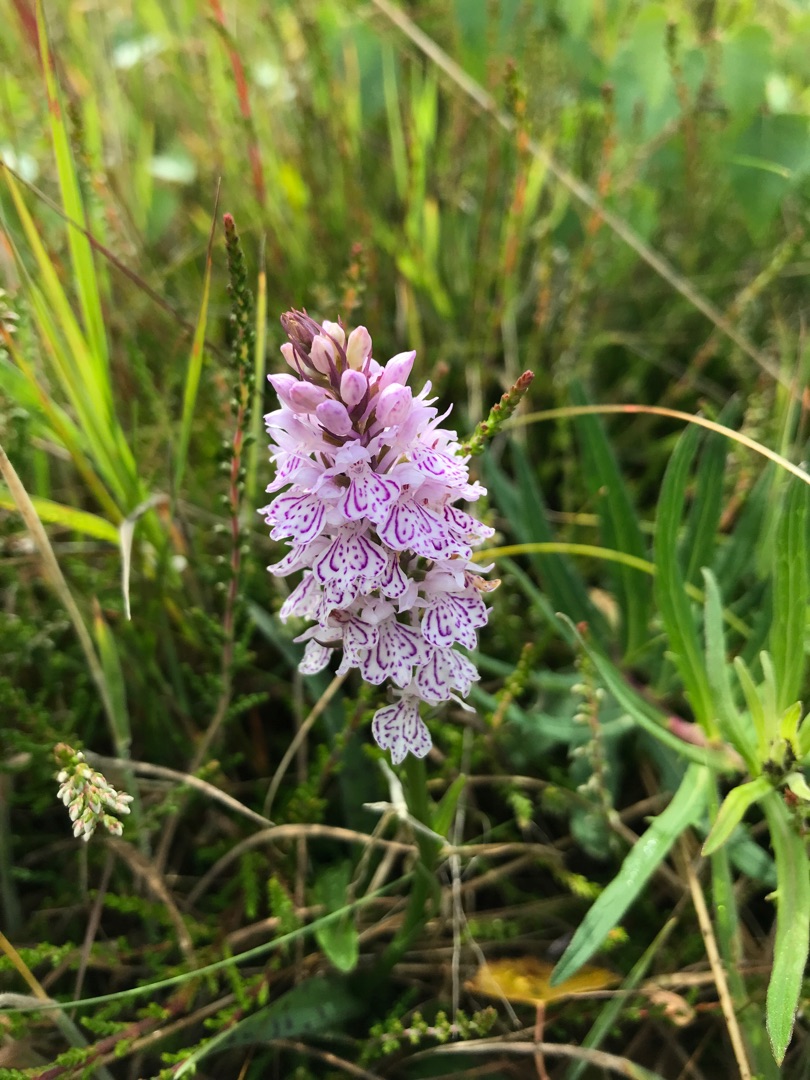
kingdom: Plantae
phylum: Tracheophyta
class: Liliopsida
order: Asparagales
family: Orchidaceae
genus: Dactylorhiza
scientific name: Dactylorhiza maculata
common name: Plettet gøgeurt (underart)
